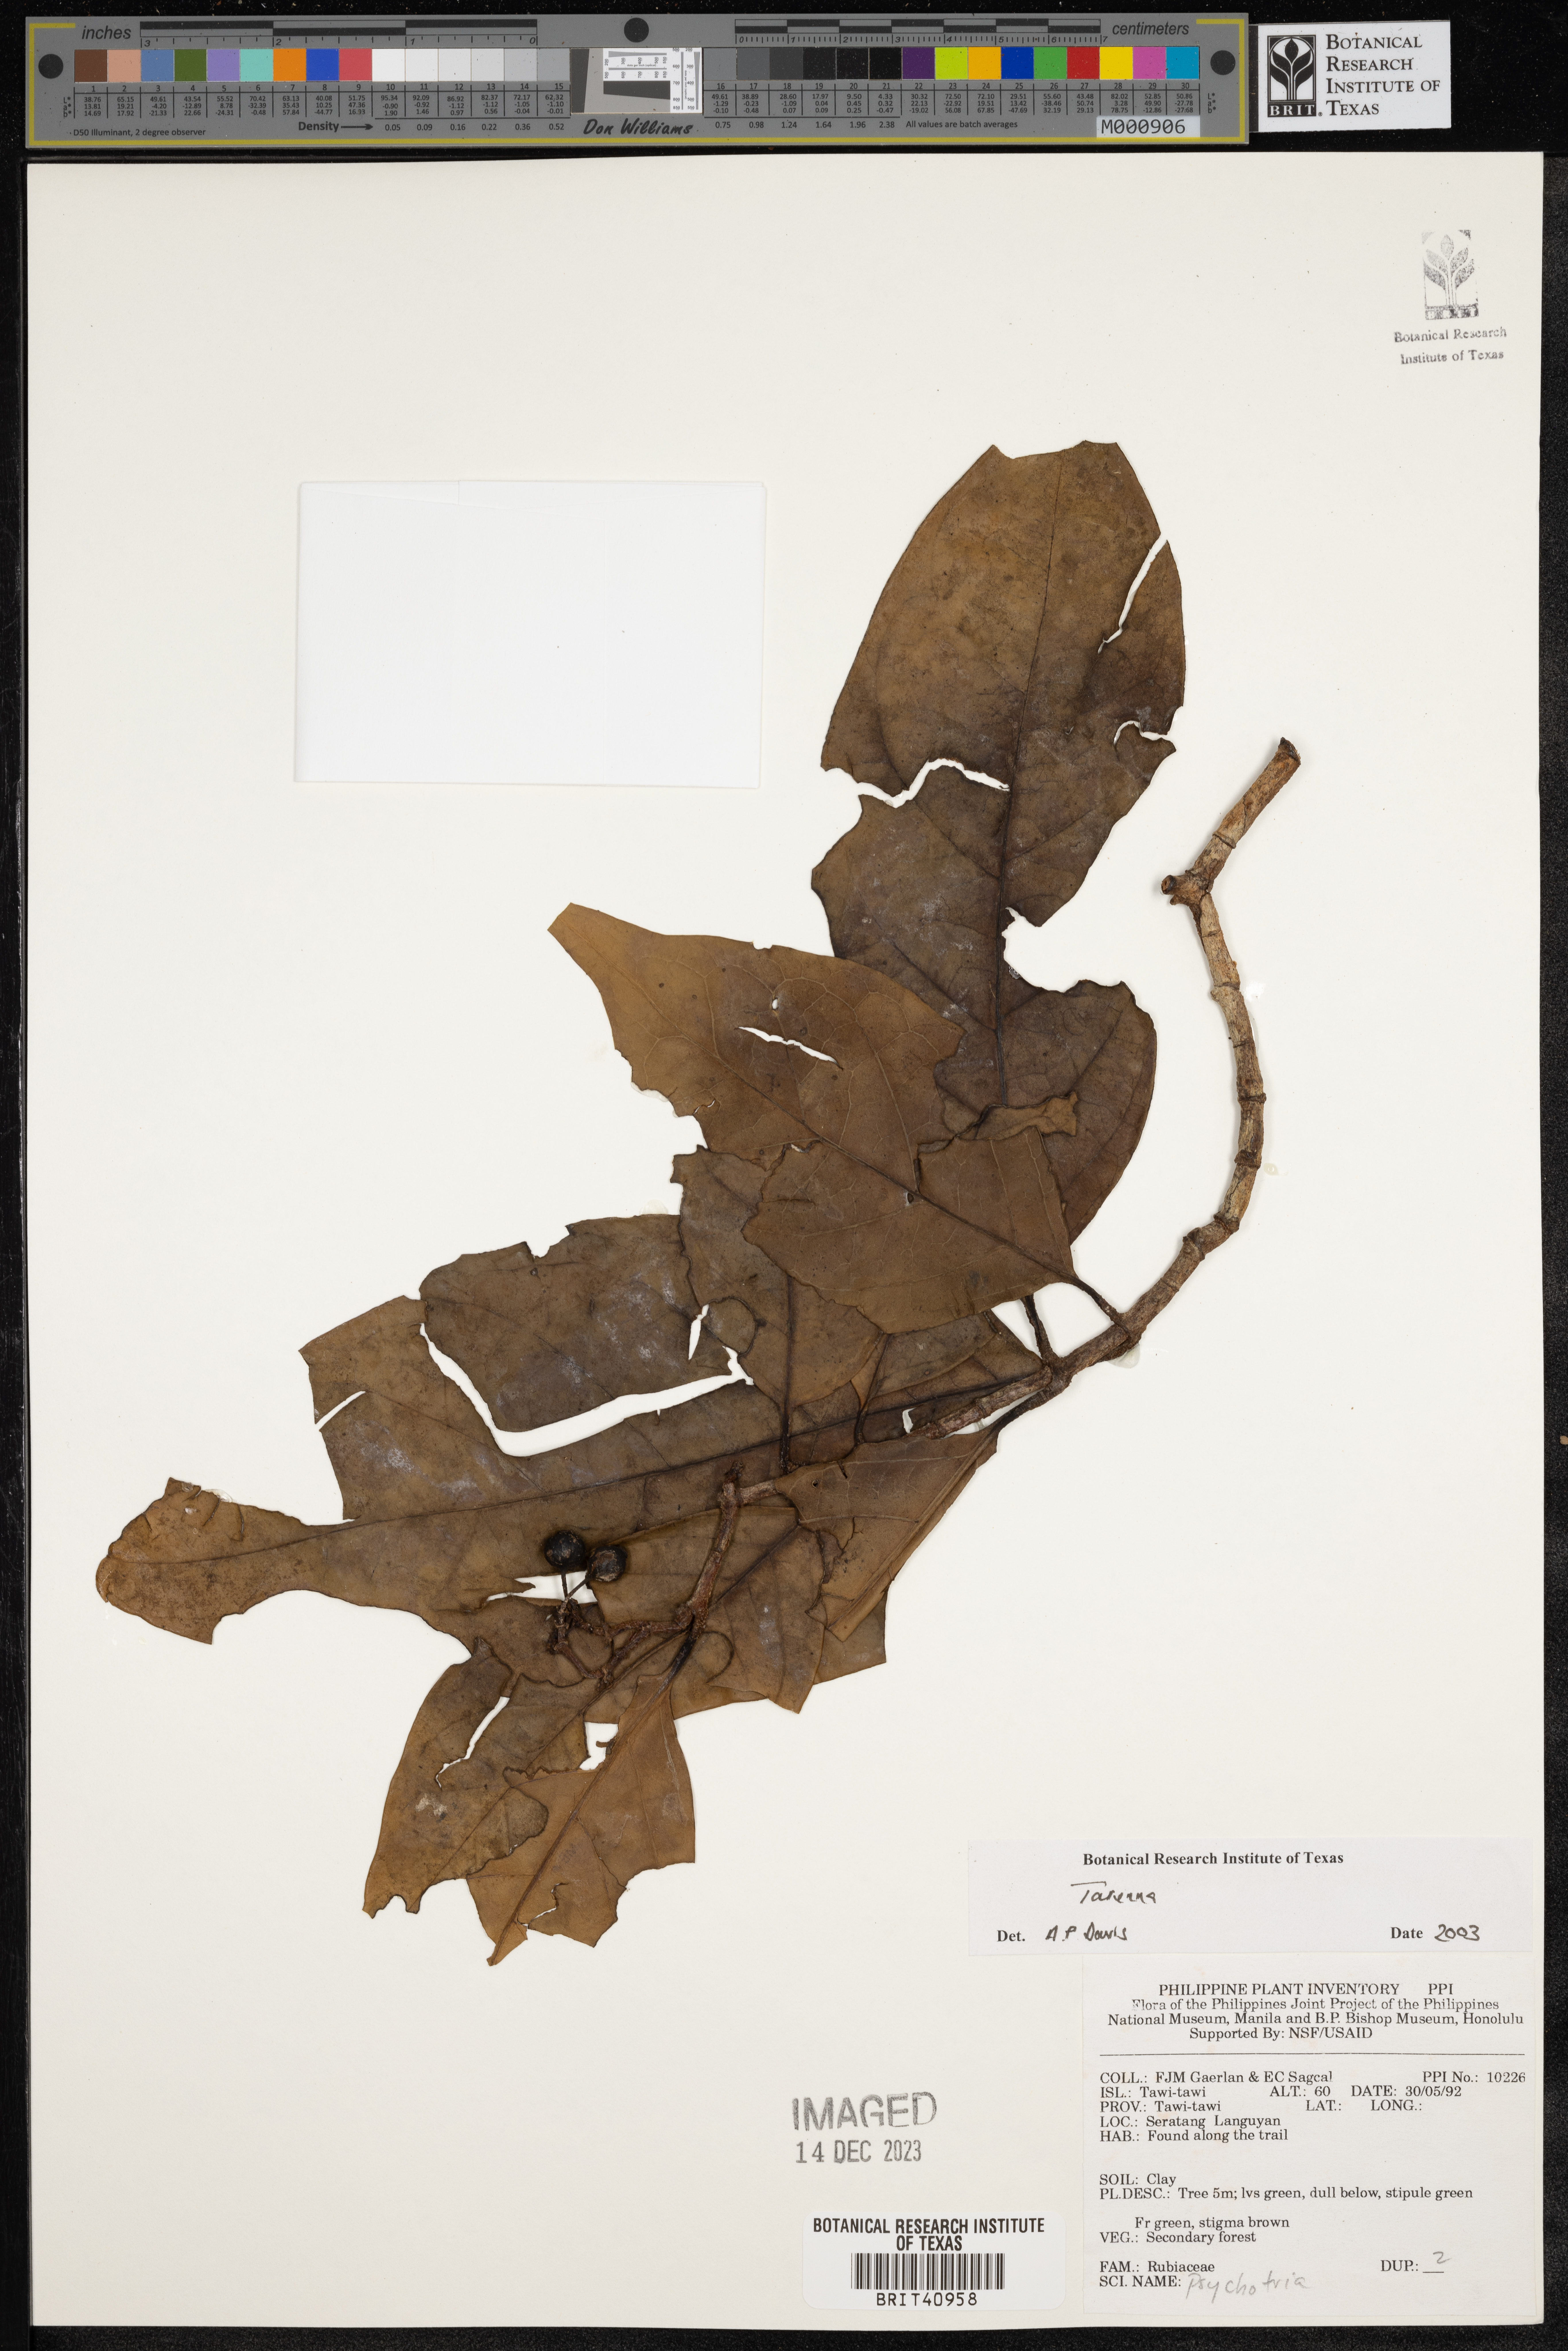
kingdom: Plantae
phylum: Tracheophyta
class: Magnoliopsida
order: Gentianales
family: Rubiaceae
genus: Tarenna
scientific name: Tarenna
